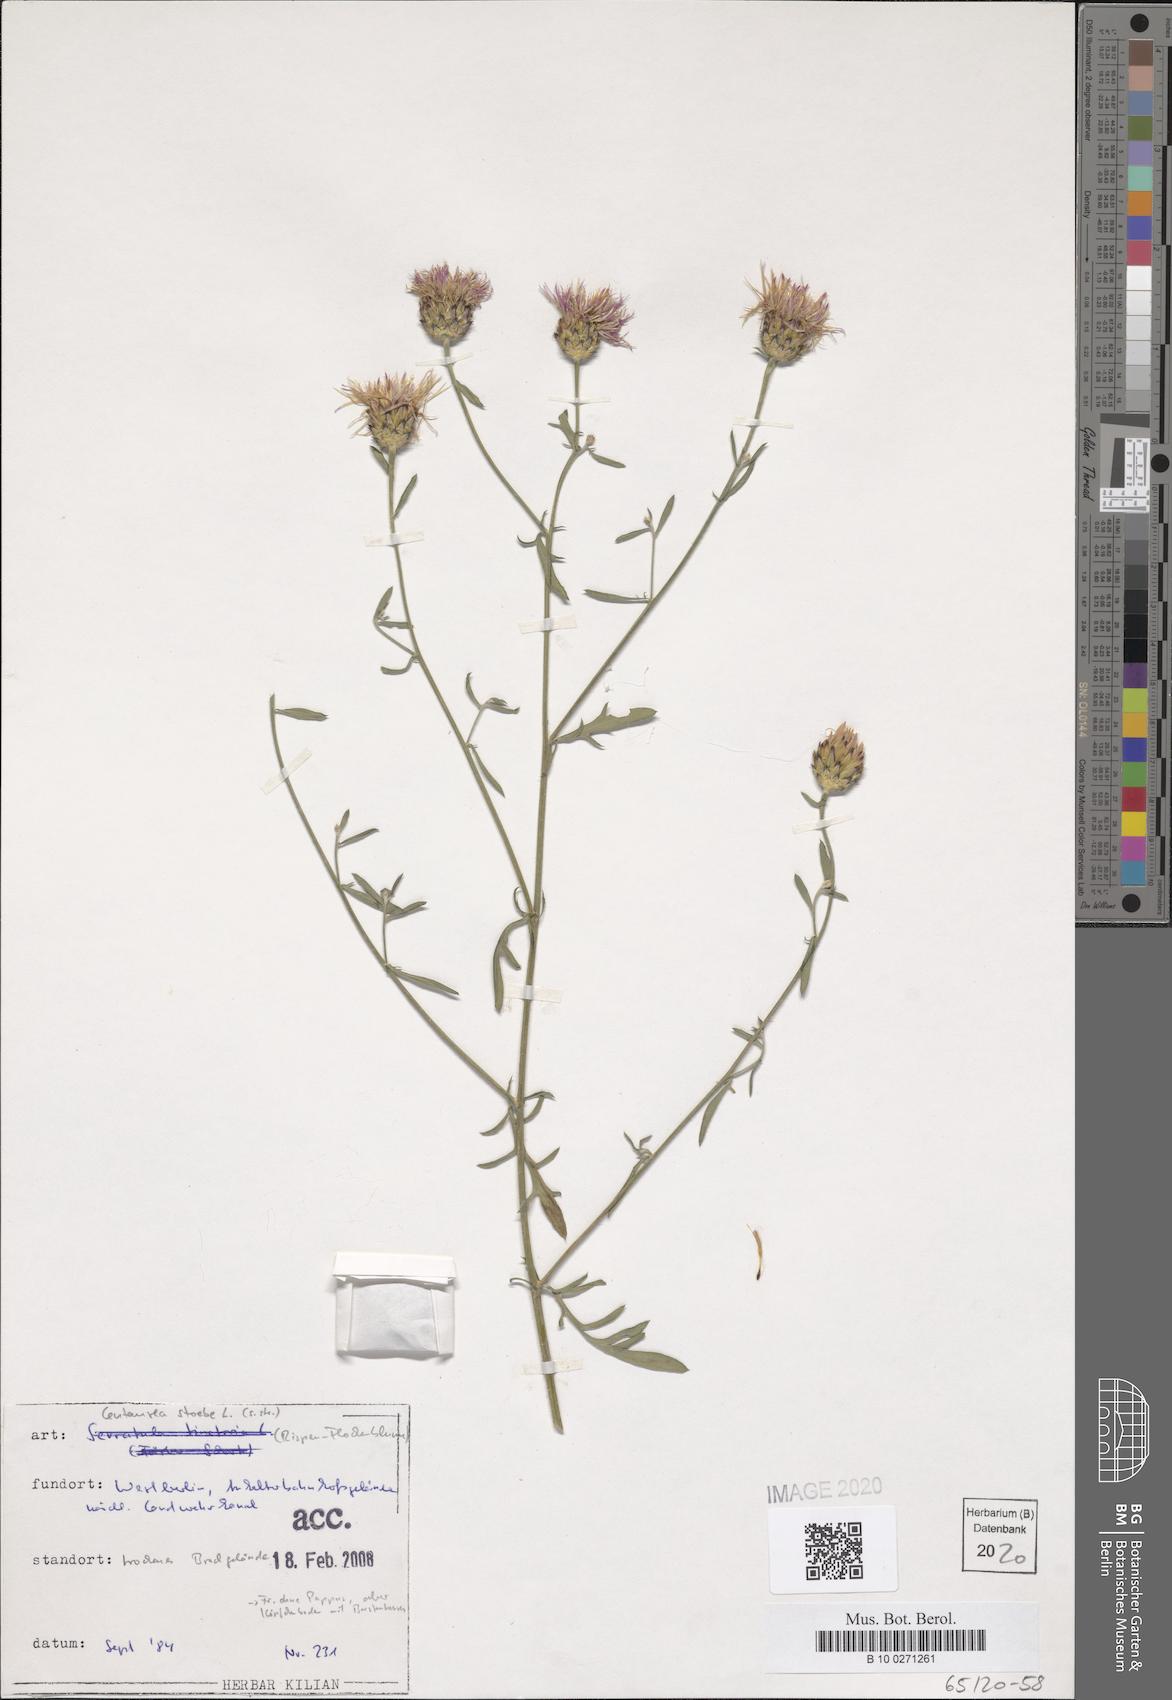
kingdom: Plantae
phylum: Tracheophyta
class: Magnoliopsida
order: Asterales
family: Asteraceae
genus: Centaurea
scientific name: Centaurea stoebe
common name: Spotted knapweed
